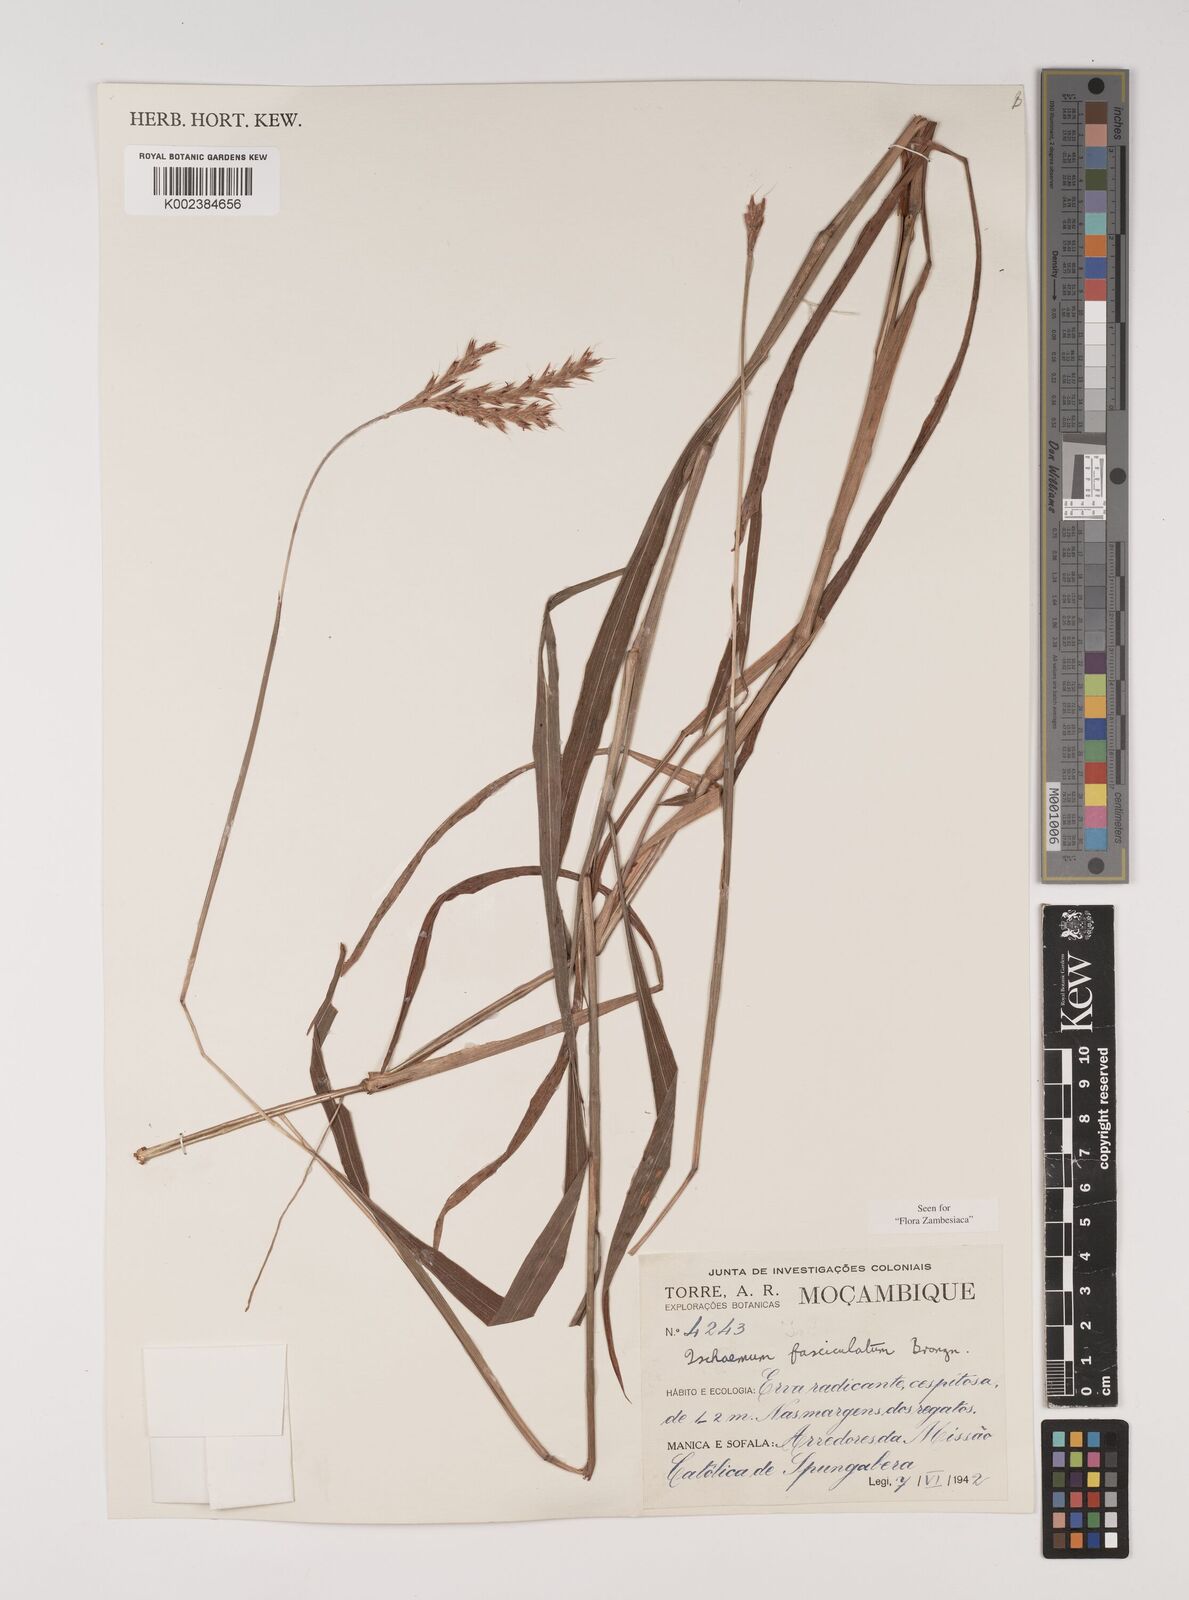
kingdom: Plantae
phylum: Tracheophyta
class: Liliopsida
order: Poales
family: Poaceae
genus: Ischaemum
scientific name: Ischaemum
